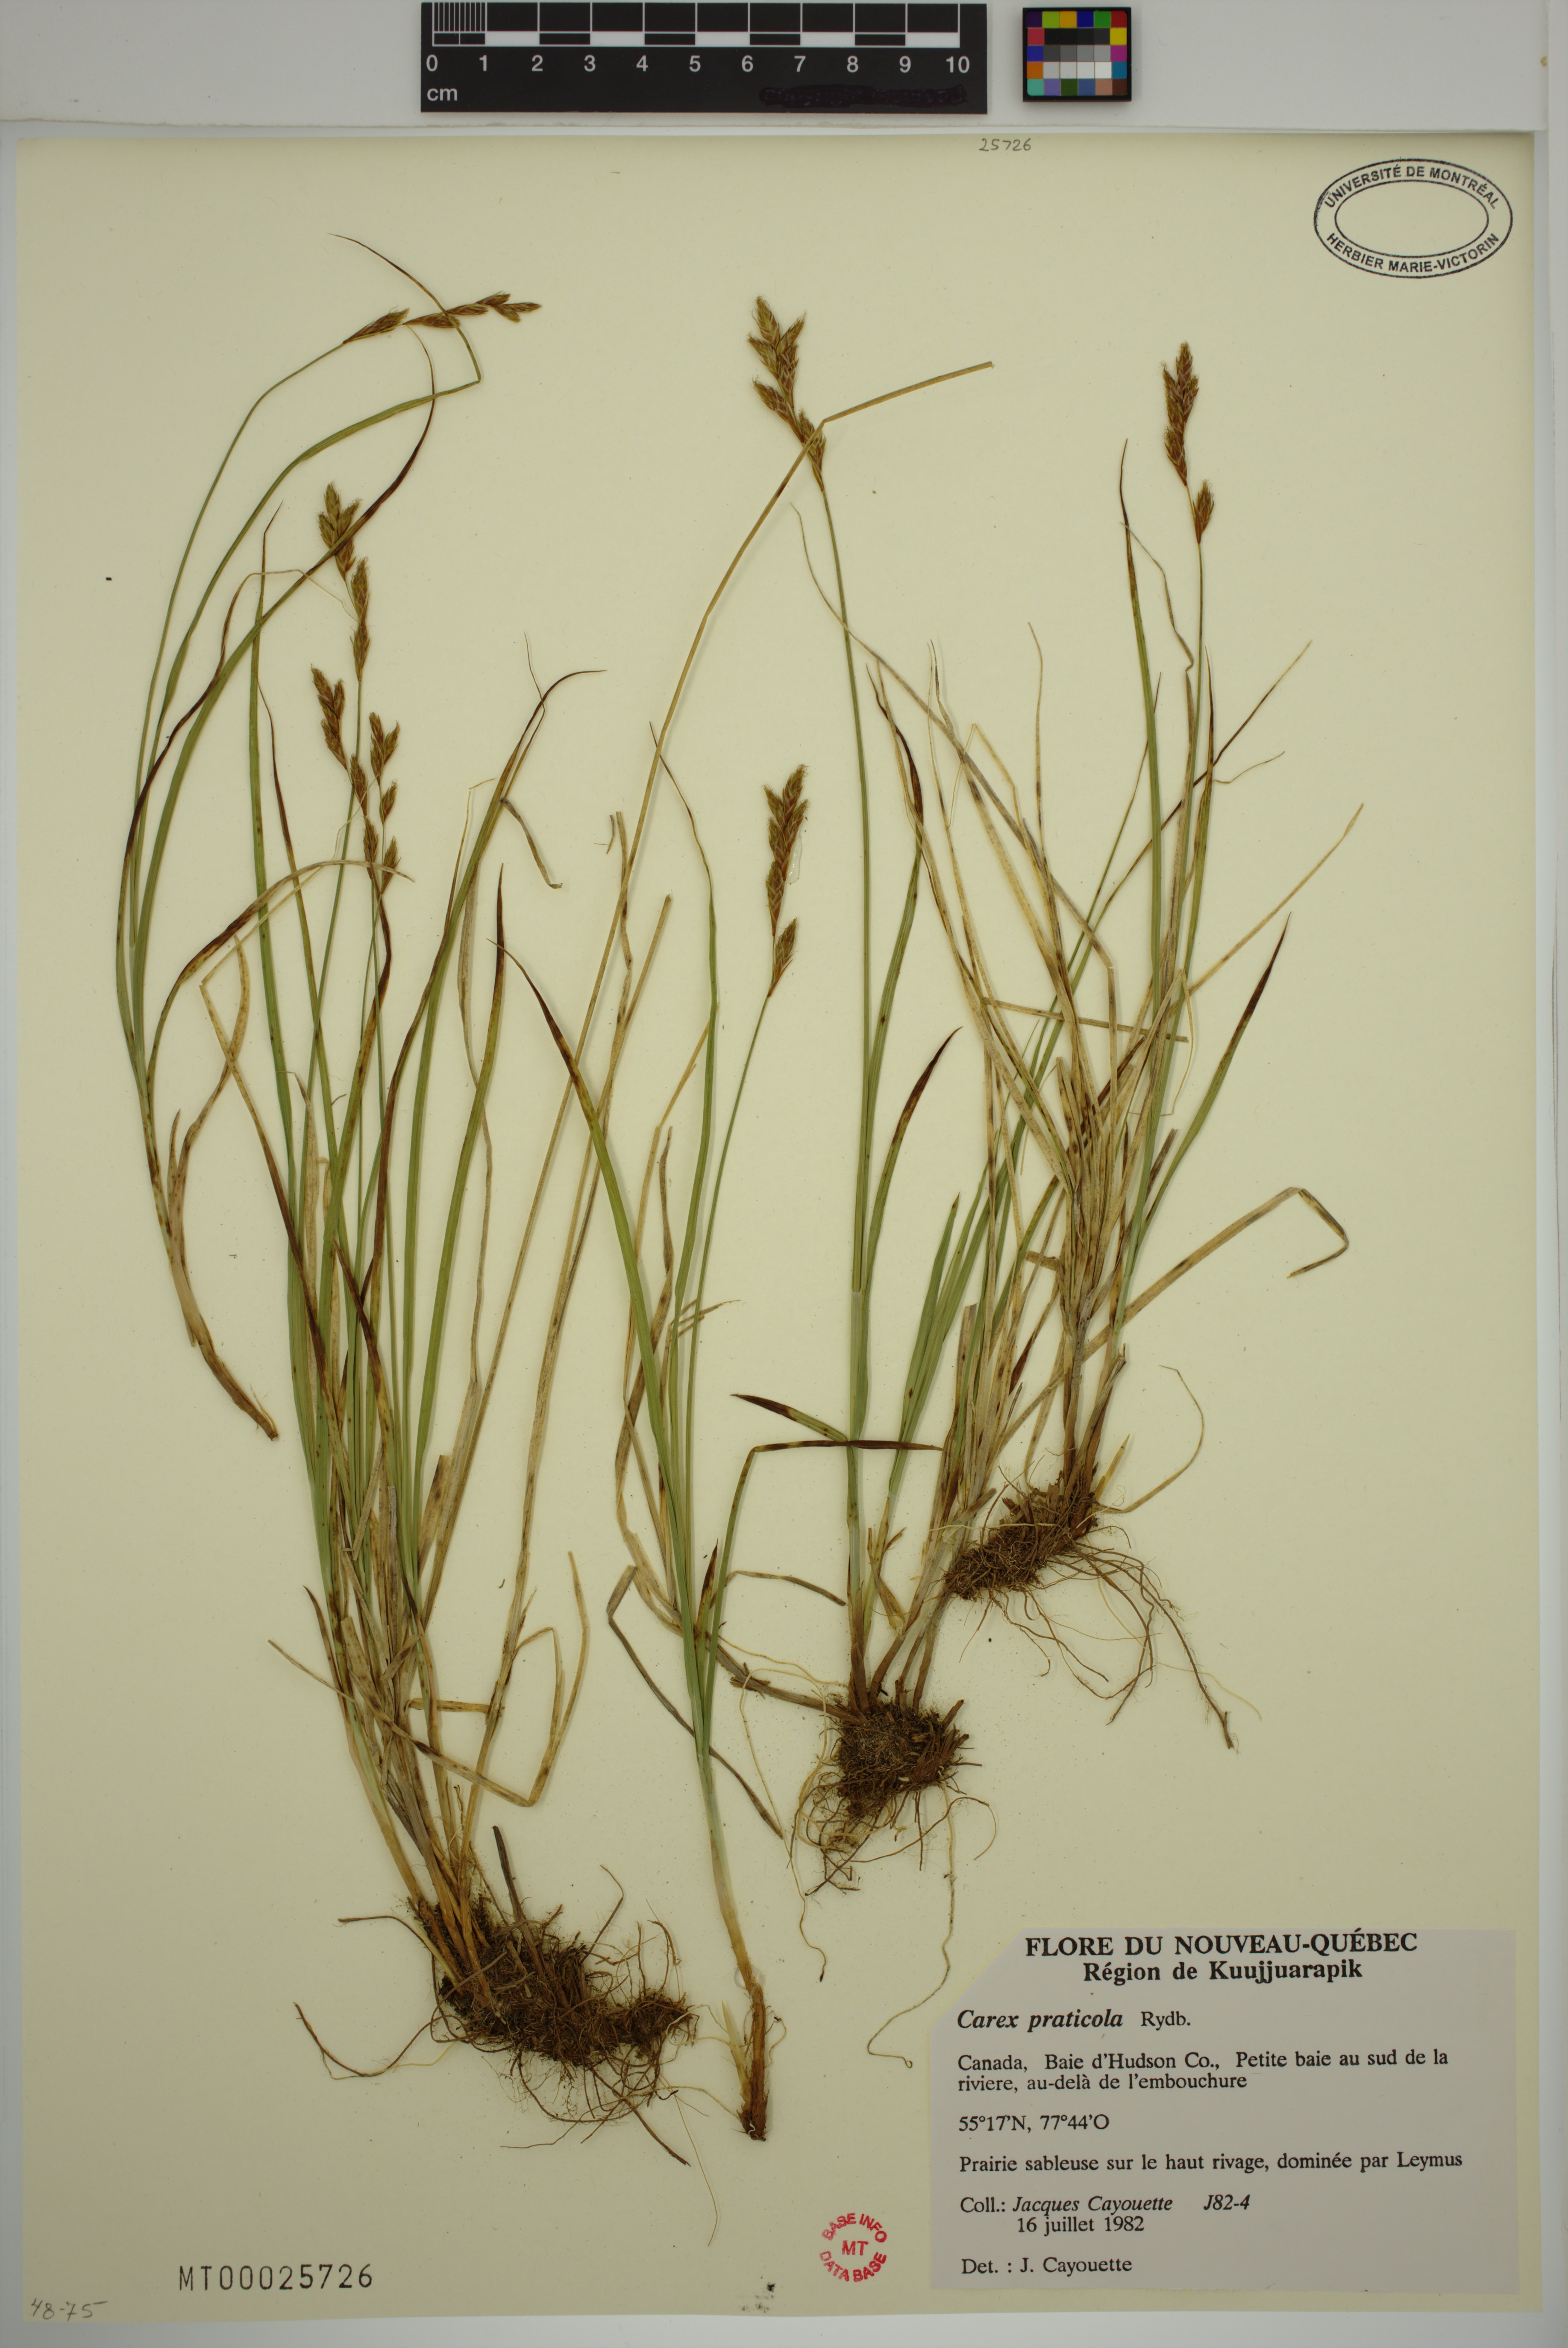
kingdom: Plantae
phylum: Tracheophyta
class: Liliopsida
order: Poales
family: Cyperaceae
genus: Carex
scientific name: Carex praticola
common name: Large-fruited oval sedge
